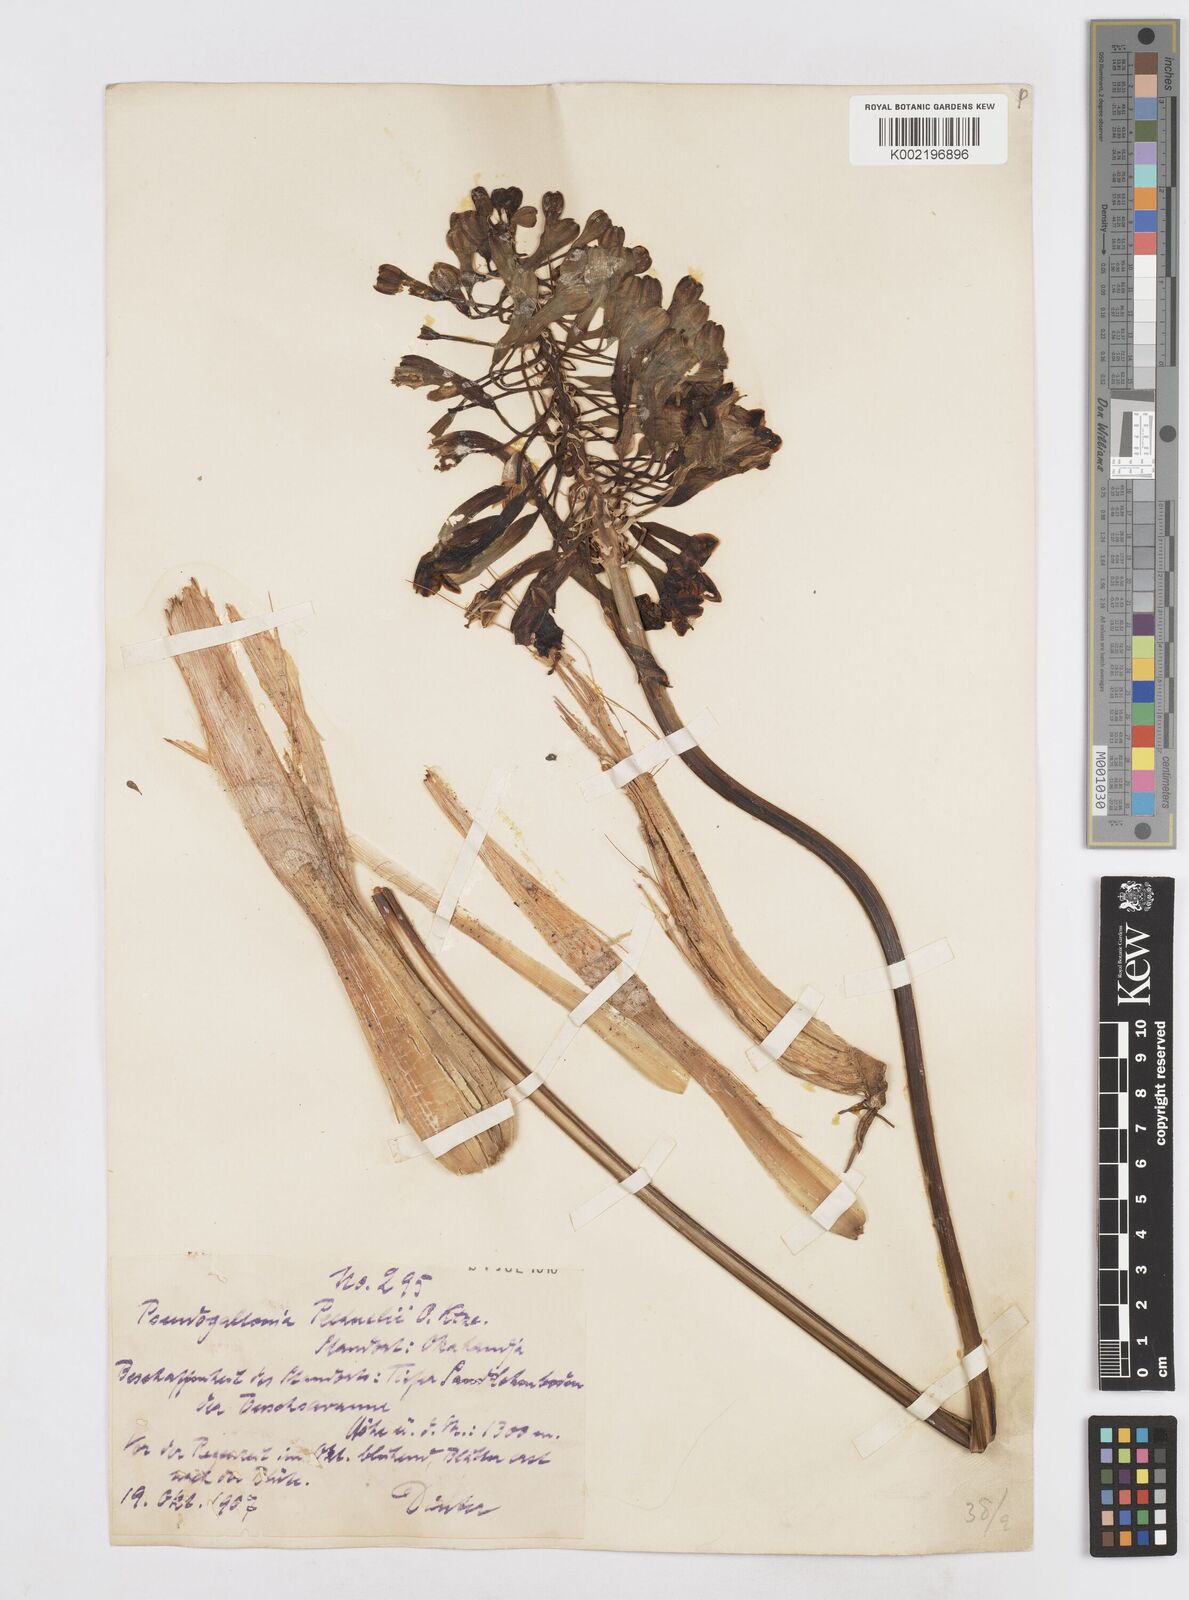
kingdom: Plantae
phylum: Tracheophyta
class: Liliopsida
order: Asparagales
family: Asparagaceae
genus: Pseudogaltonia
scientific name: Pseudogaltonia clavata
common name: South west african slangkop
